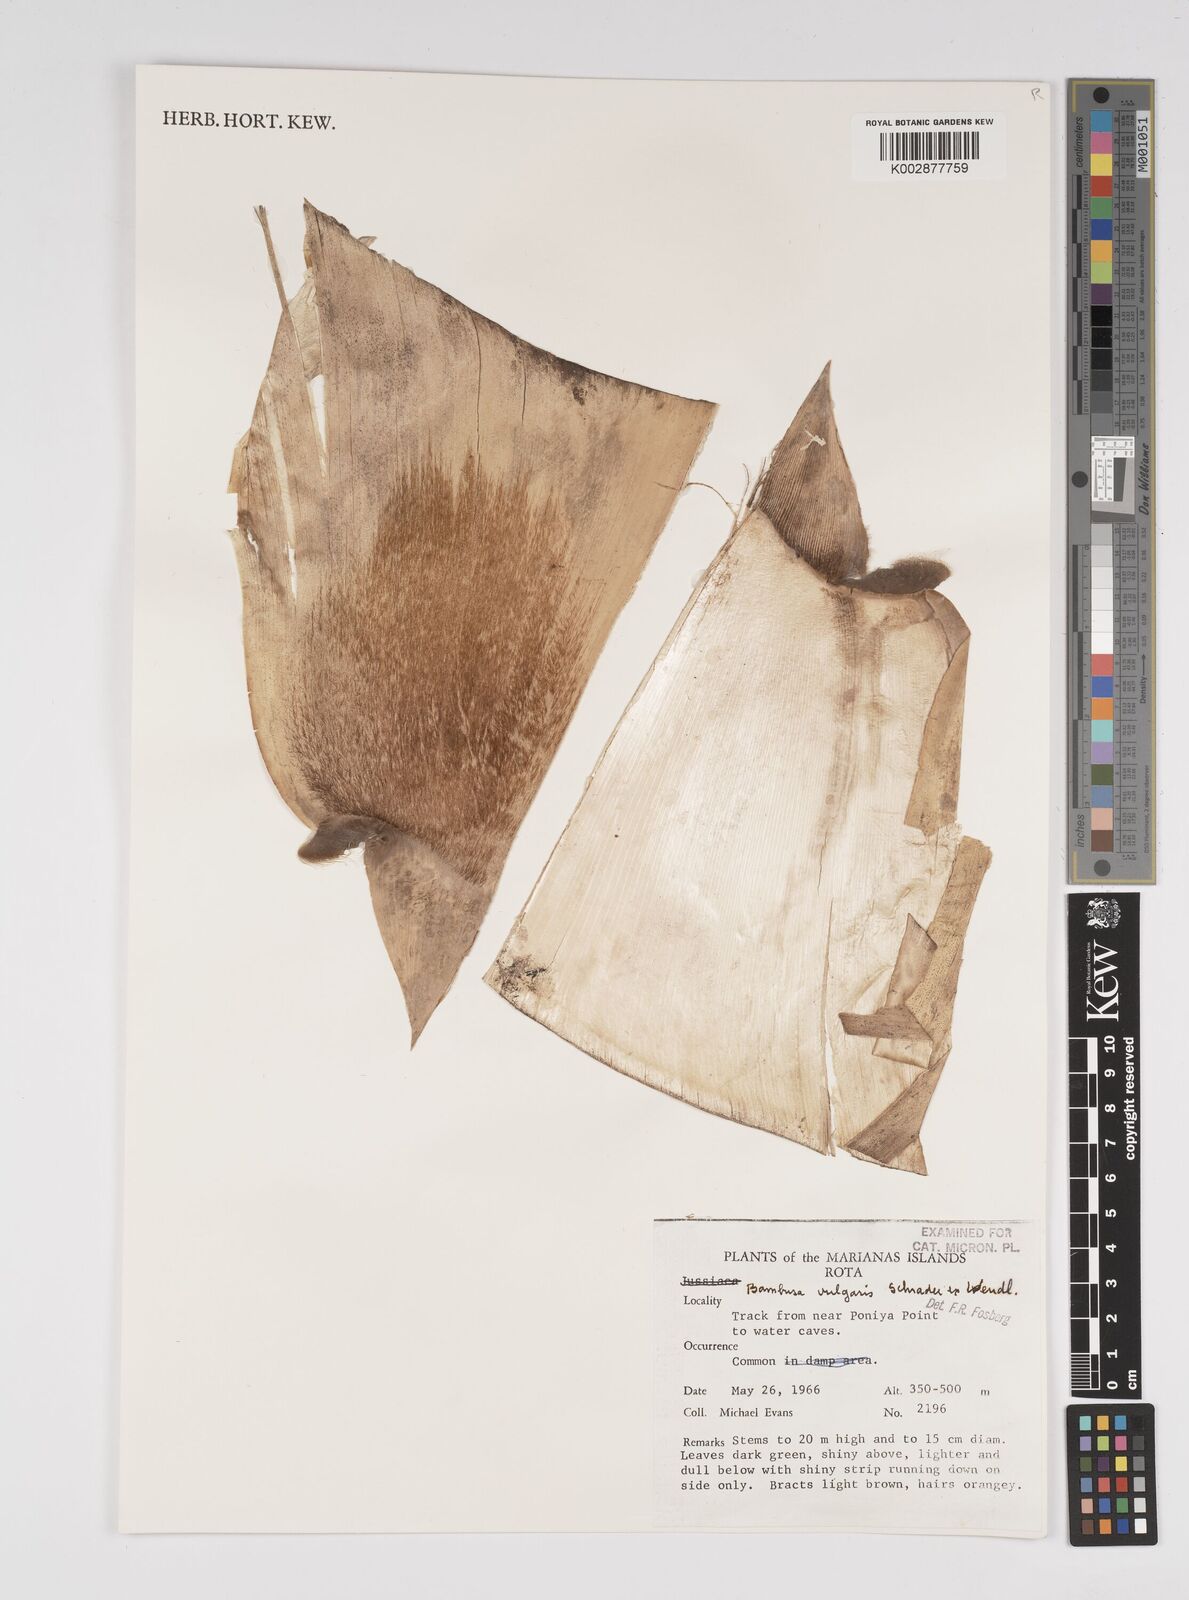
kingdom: Plantae
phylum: Tracheophyta
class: Liliopsida
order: Poales
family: Poaceae
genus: Bambusa
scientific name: Bambusa
